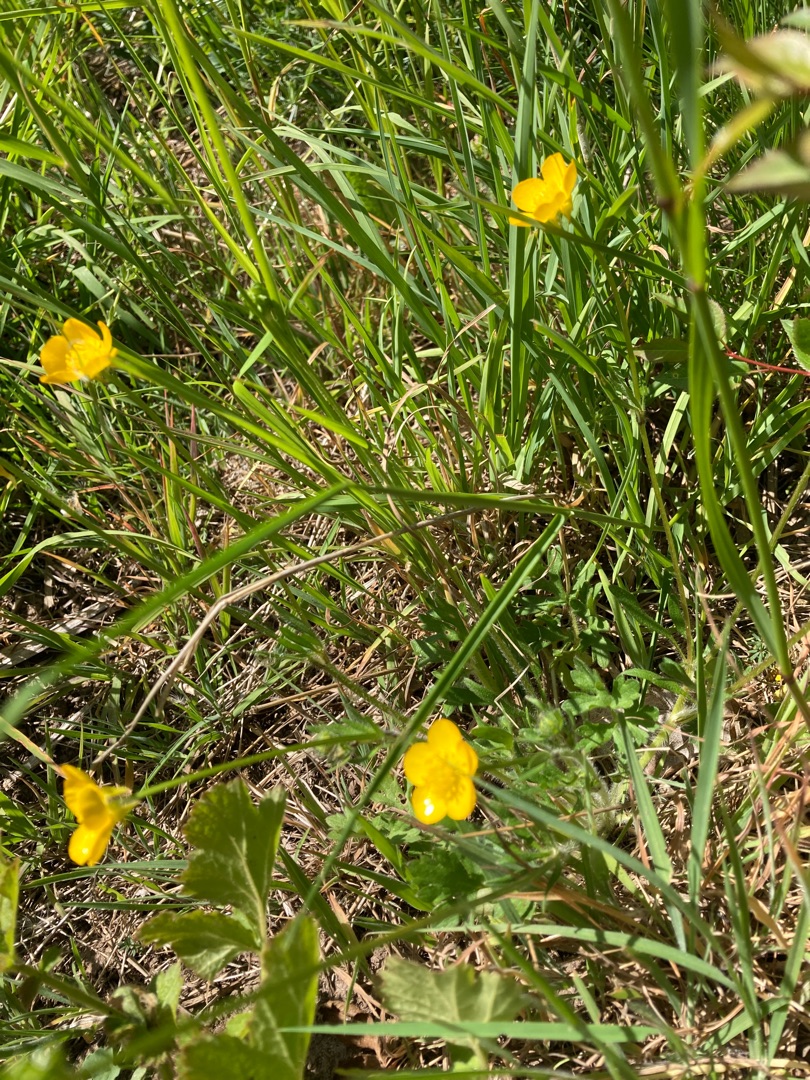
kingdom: Plantae
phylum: Tracheophyta
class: Magnoliopsida
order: Ranunculales
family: Ranunculaceae
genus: Ranunculus
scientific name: Ranunculus bulbosus
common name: Knold-ranunkel
